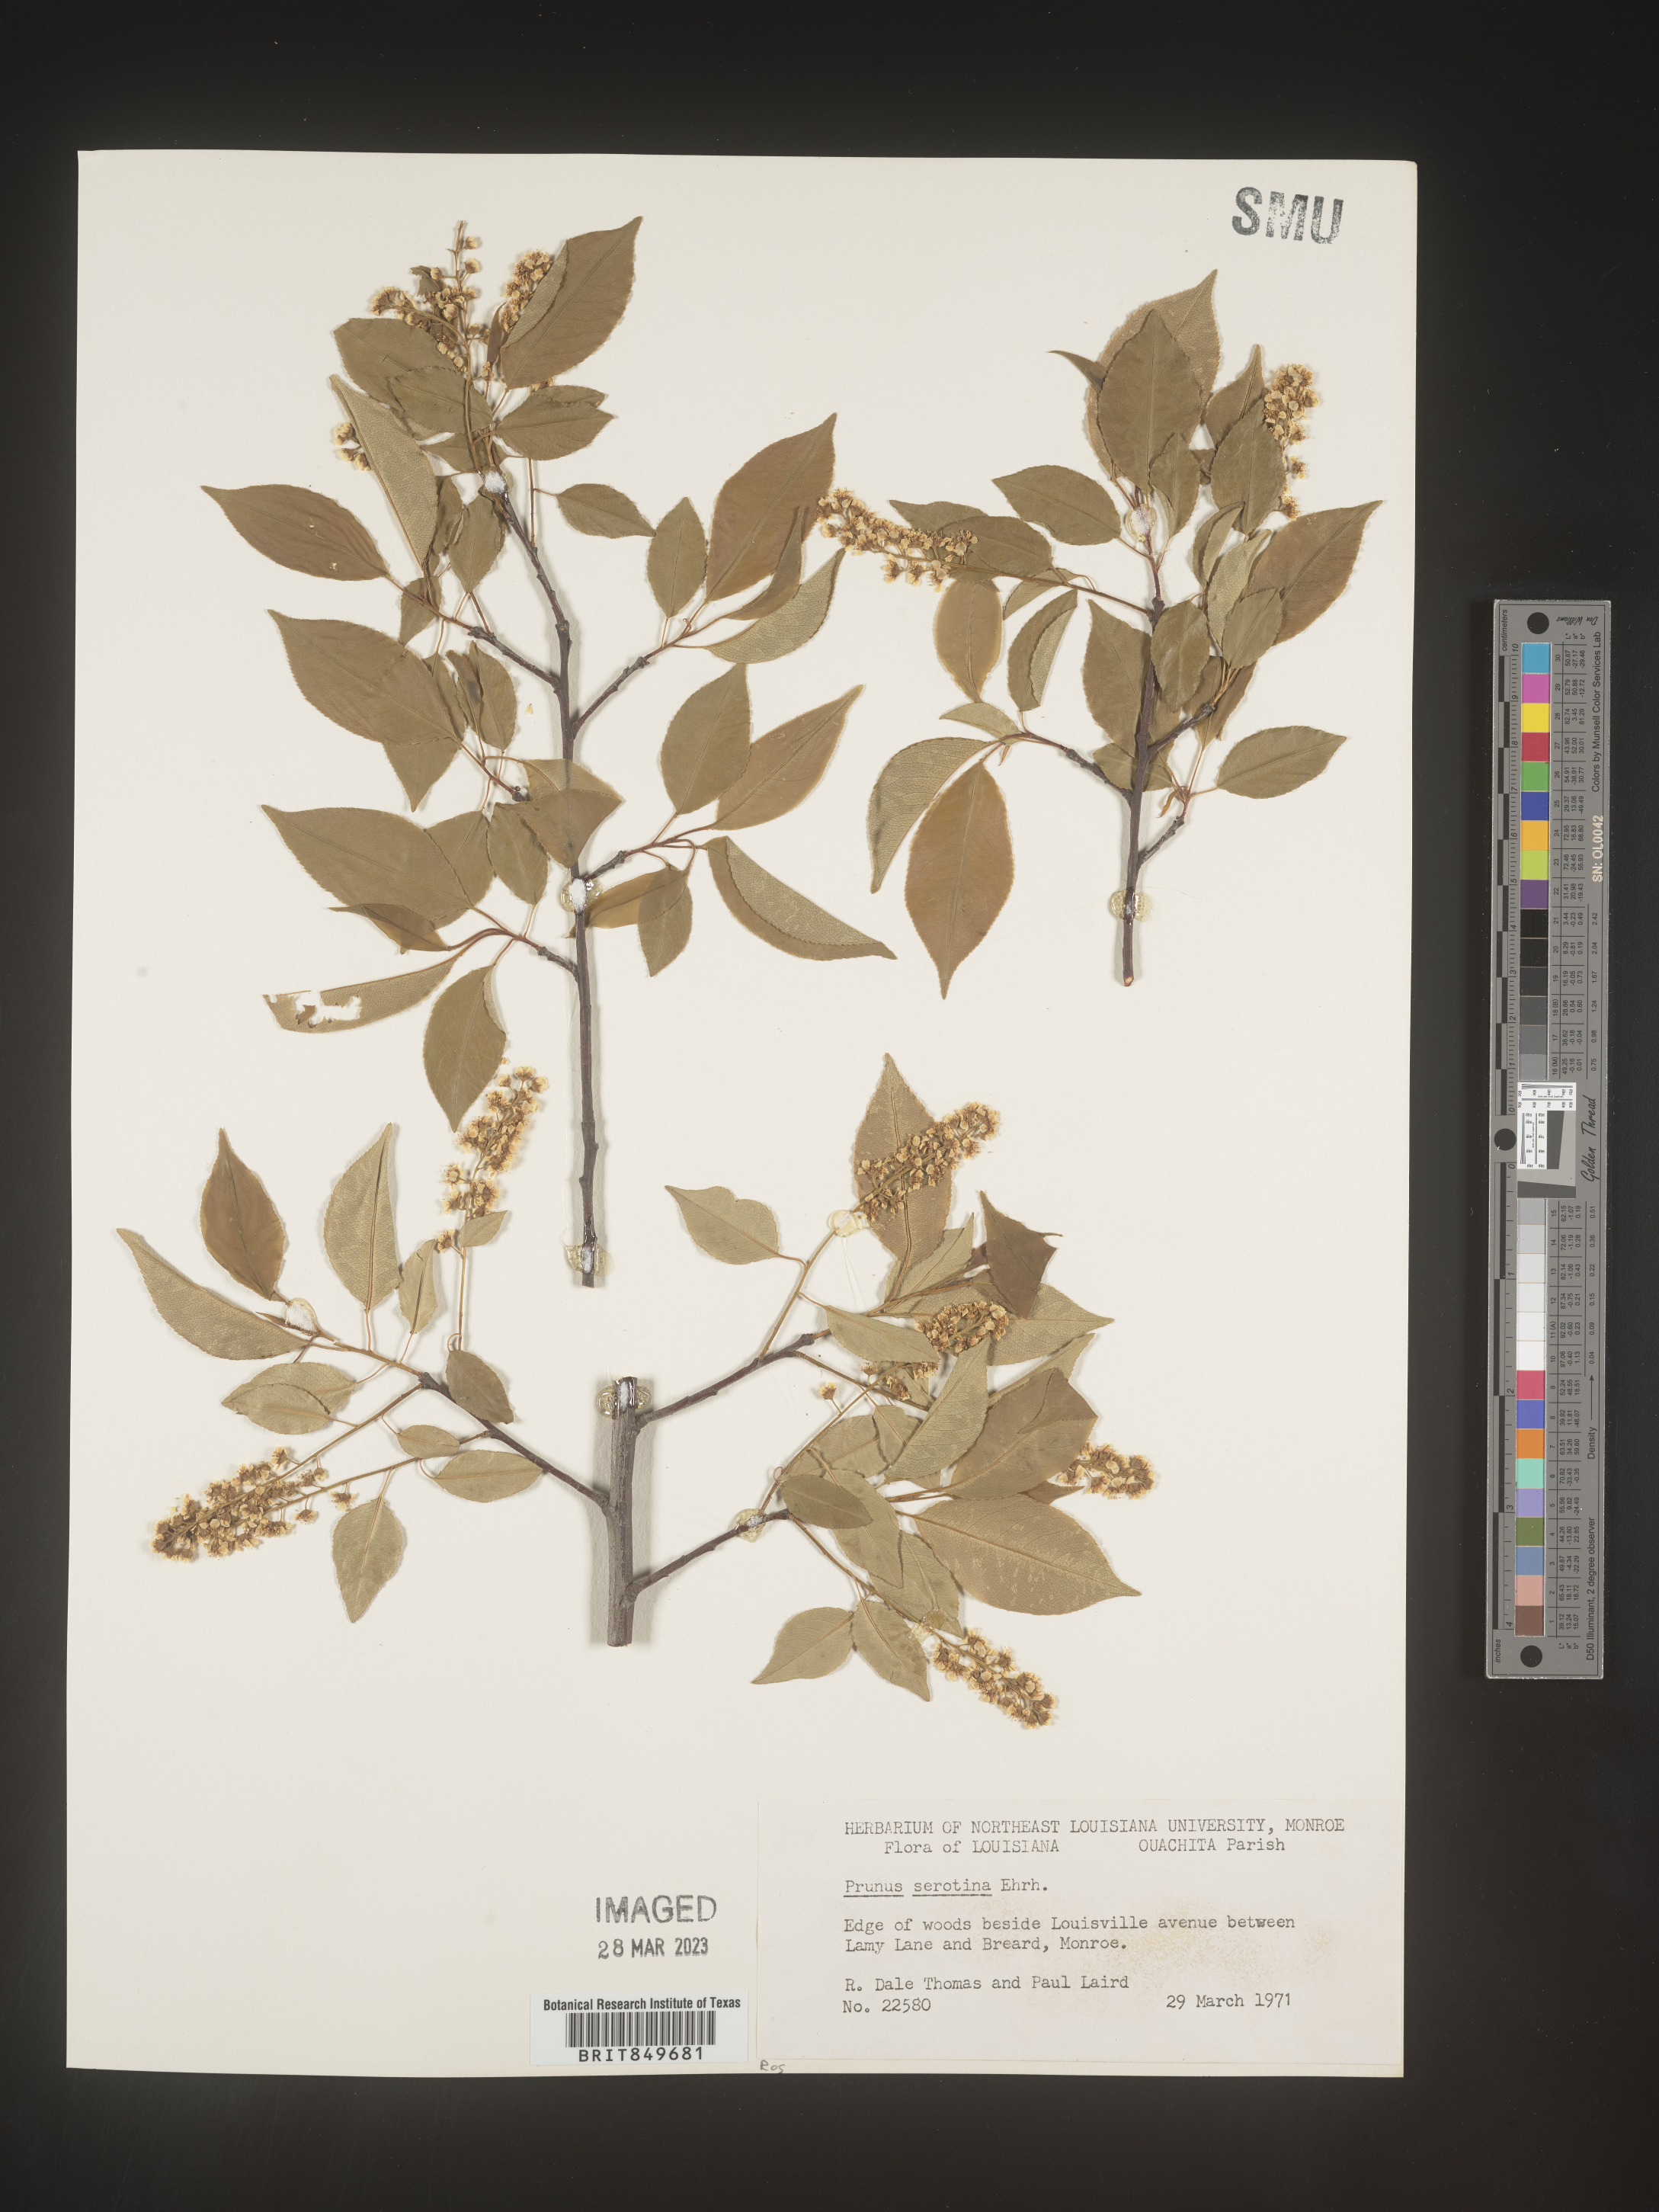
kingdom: Plantae
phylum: Tracheophyta
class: Magnoliopsida
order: Rosales
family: Rosaceae
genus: Prunus
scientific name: Prunus serotina
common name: Black cherry
